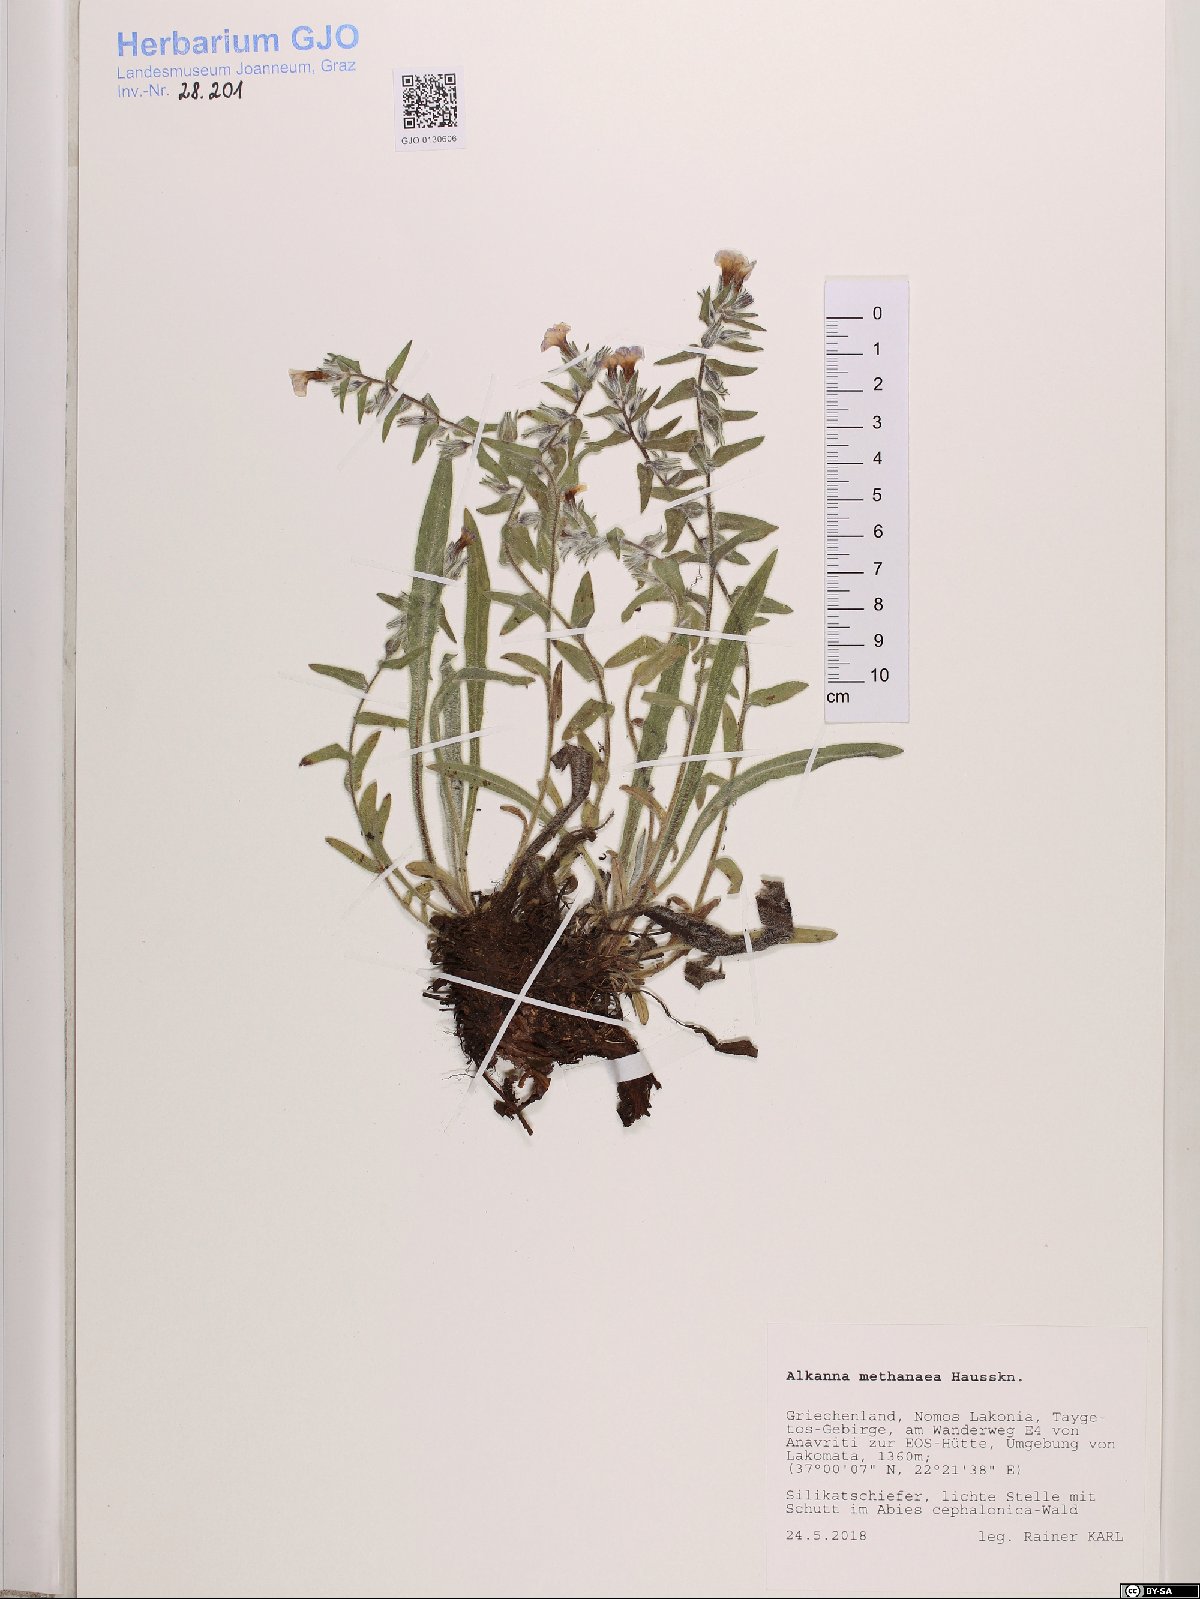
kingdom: Plantae
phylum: Tracheophyta
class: Magnoliopsida
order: Boraginales
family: Boraginaceae
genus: Alkanna
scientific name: Alkanna methanaea
